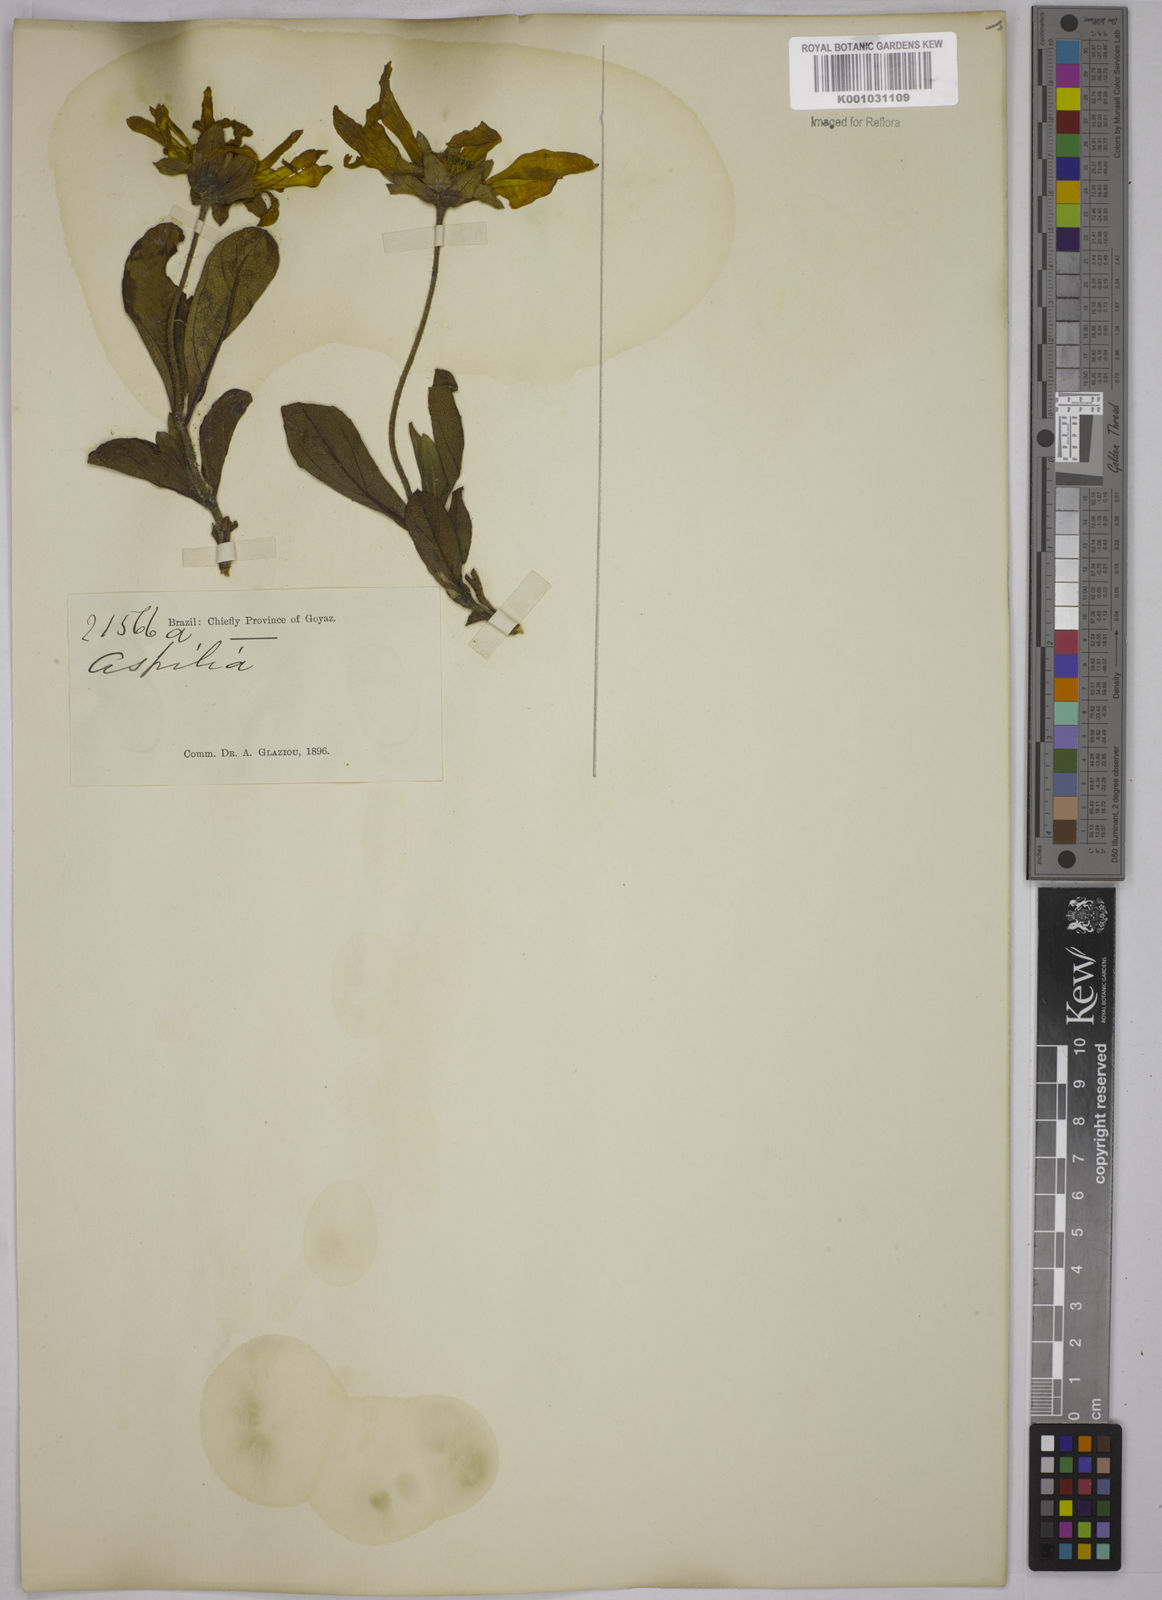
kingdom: Plantae
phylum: Tracheophyta
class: Magnoliopsida
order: Asterales
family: Asteraceae
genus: Aspilia
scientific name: Aspilia
